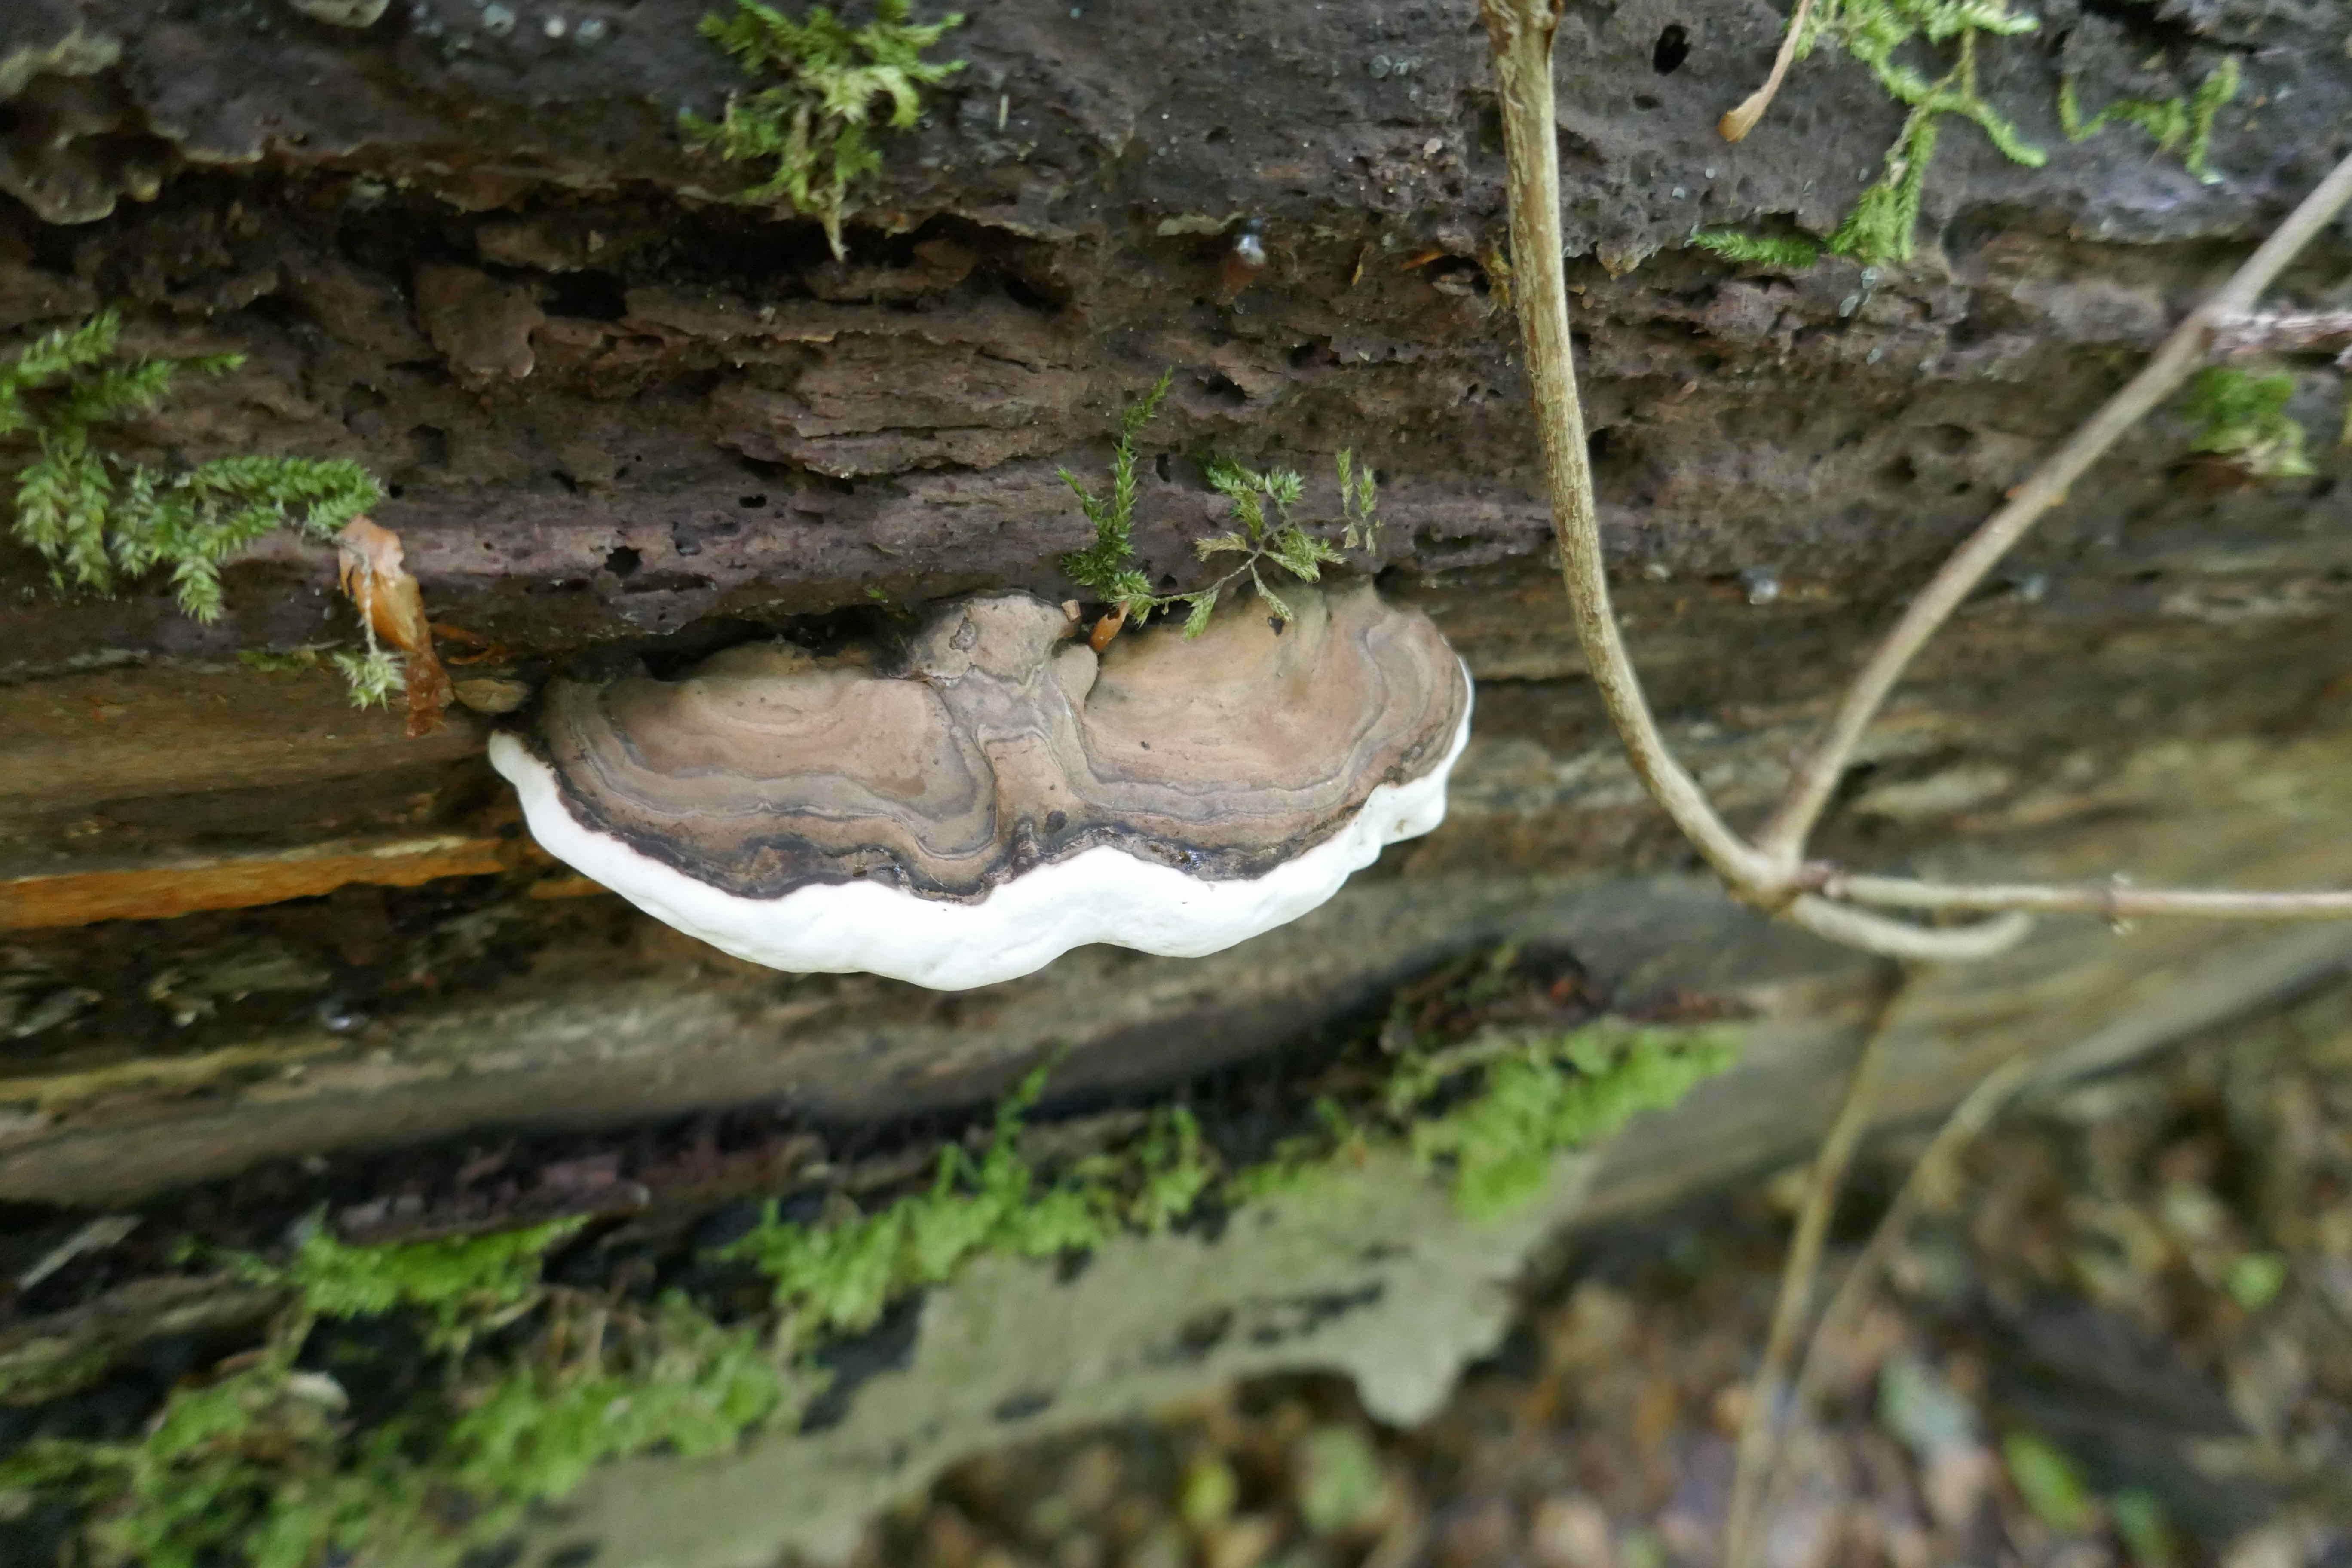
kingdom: Fungi
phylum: Basidiomycota
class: Agaricomycetes
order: Polyporales
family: Polyporaceae
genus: Ganoderma
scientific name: Ganoderma applanatum
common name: flad lakporesvamp
